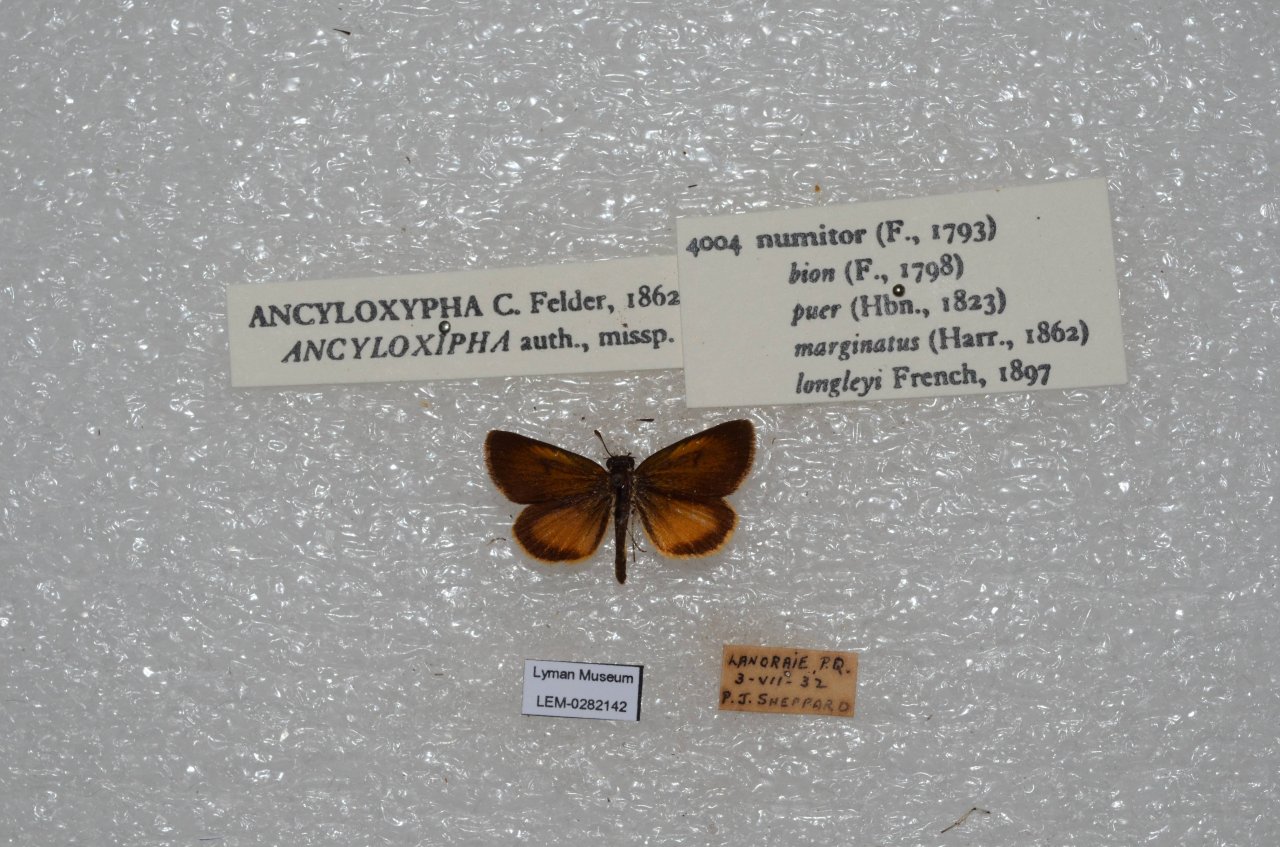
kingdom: Animalia
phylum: Arthropoda
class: Insecta
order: Lepidoptera
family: Hesperiidae
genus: Ancyloxypha
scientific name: Ancyloxypha numitor
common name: Least Skipper
